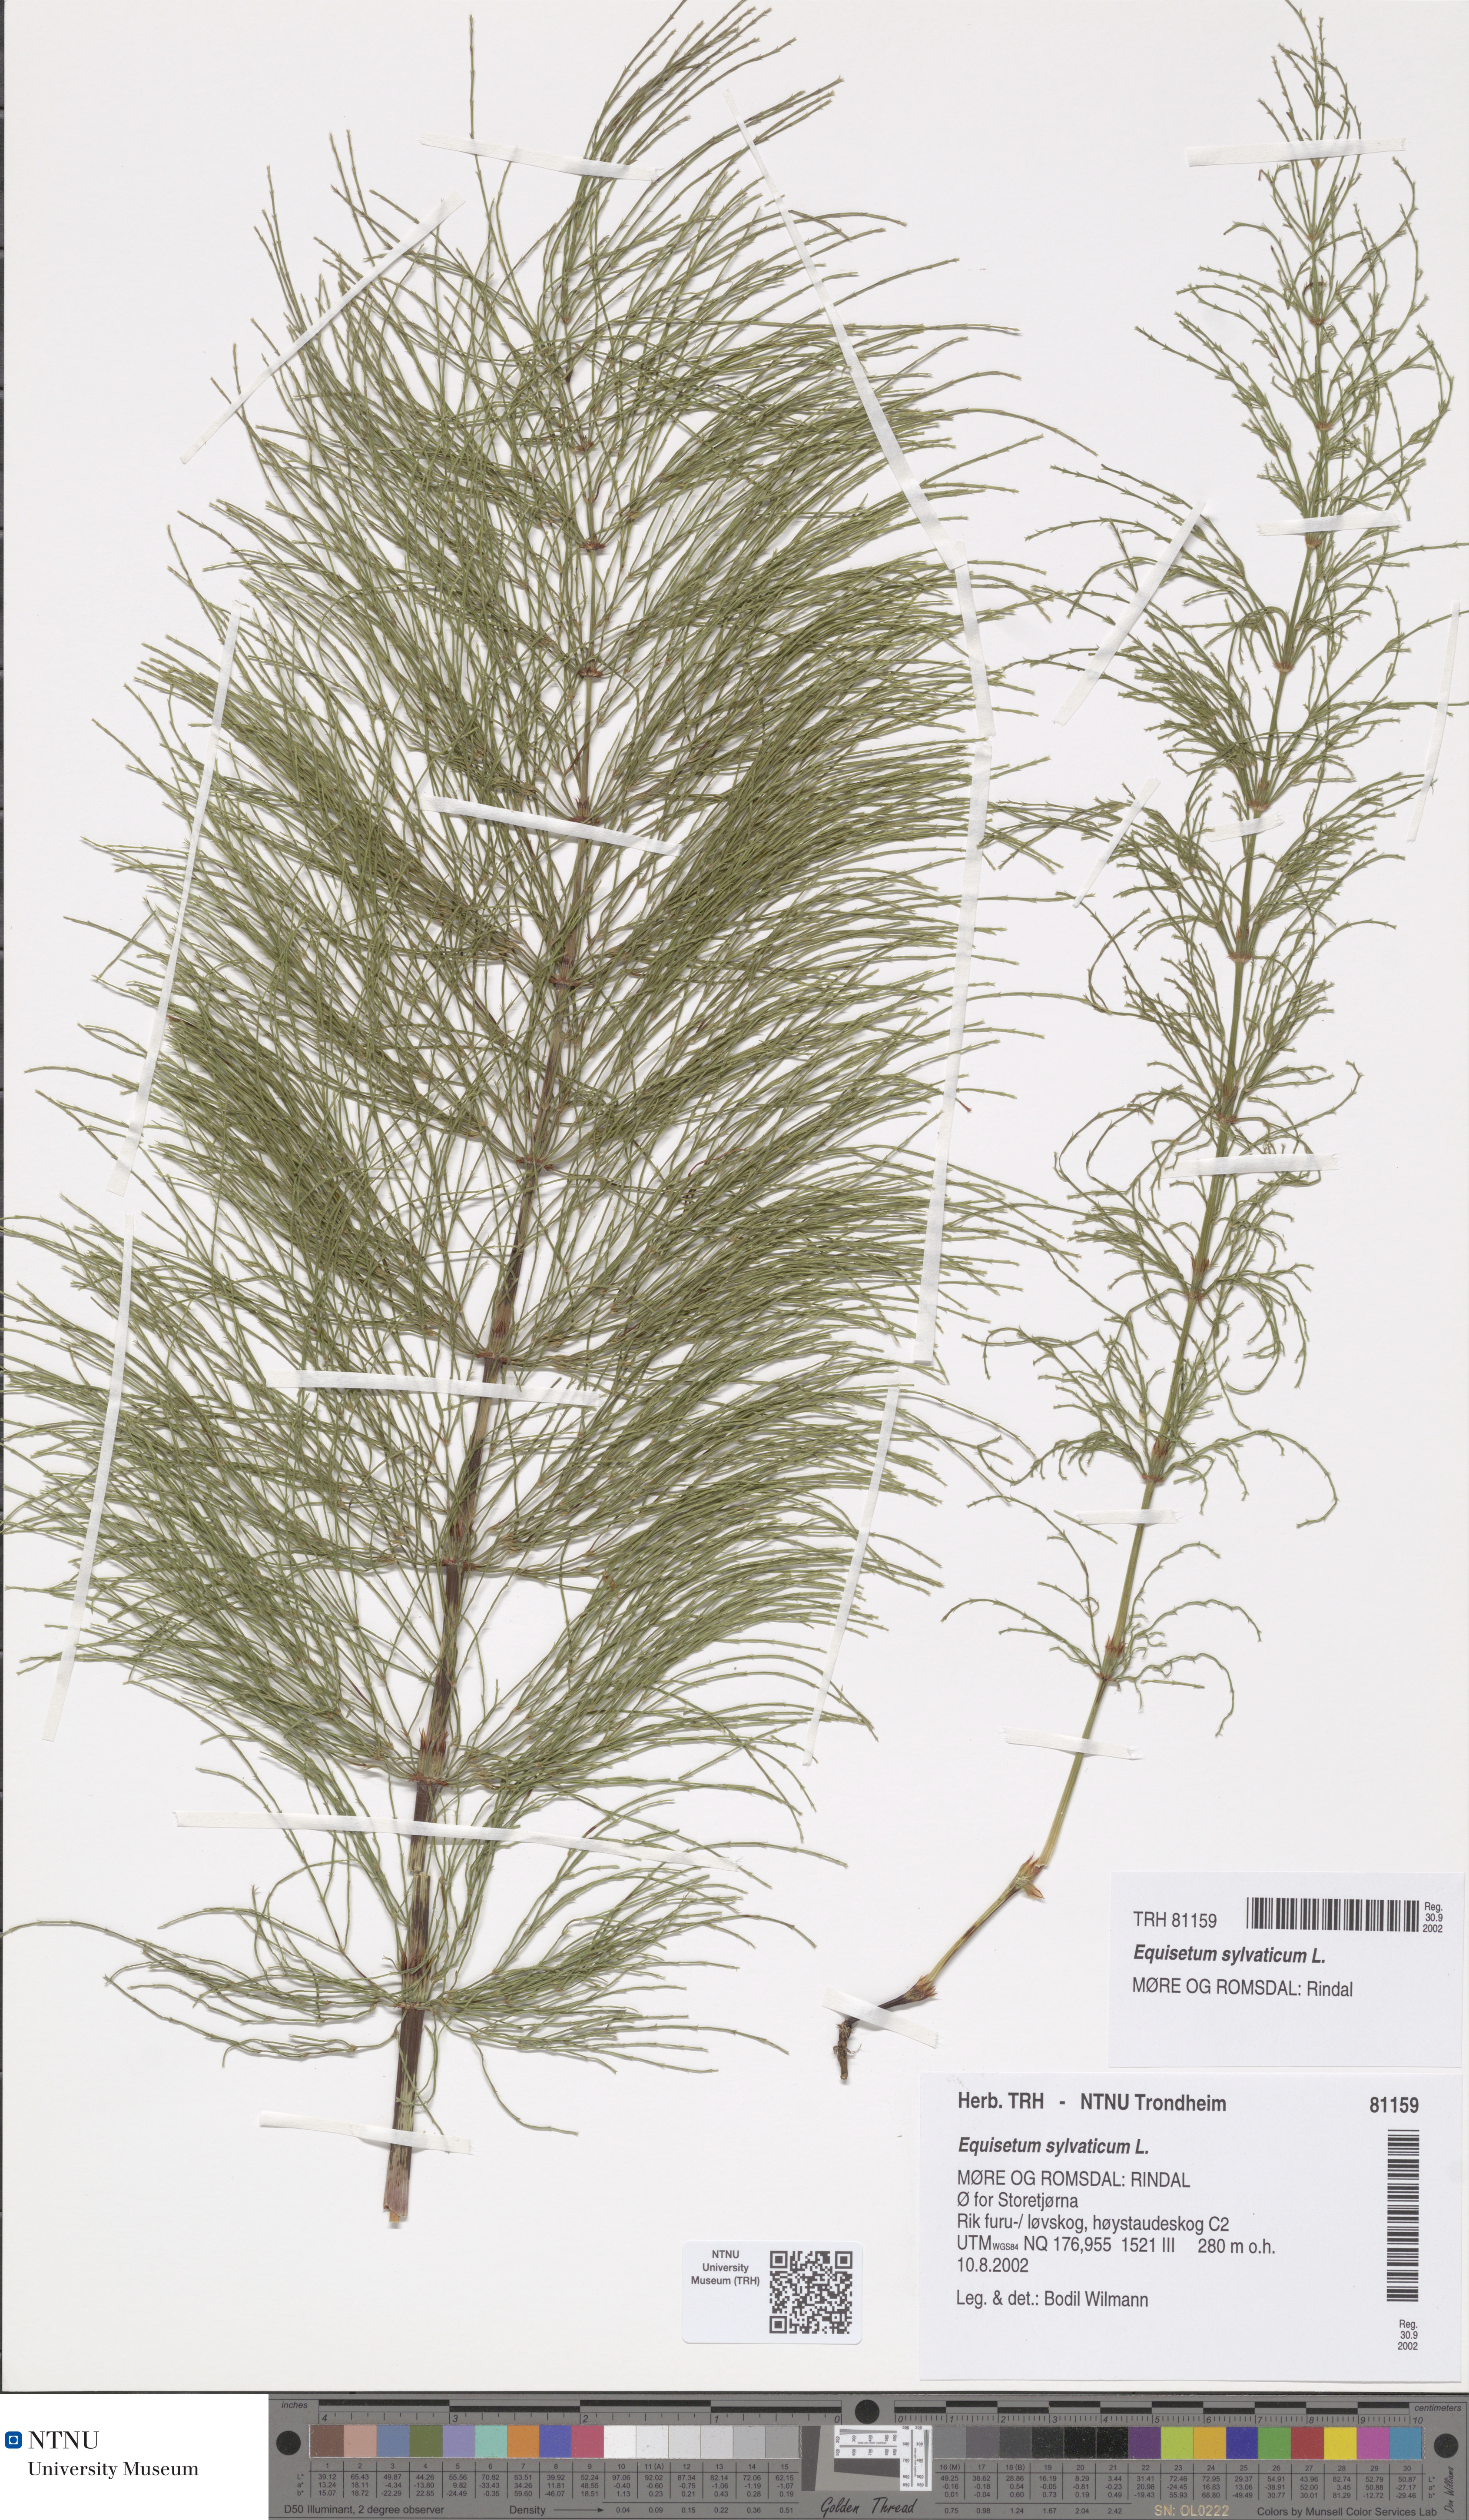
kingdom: Plantae
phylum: Tracheophyta
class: Polypodiopsida
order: Equisetales
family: Equisetaceae
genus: Equisetum
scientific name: Equisetum sylvaticum
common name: Wood horsetail
